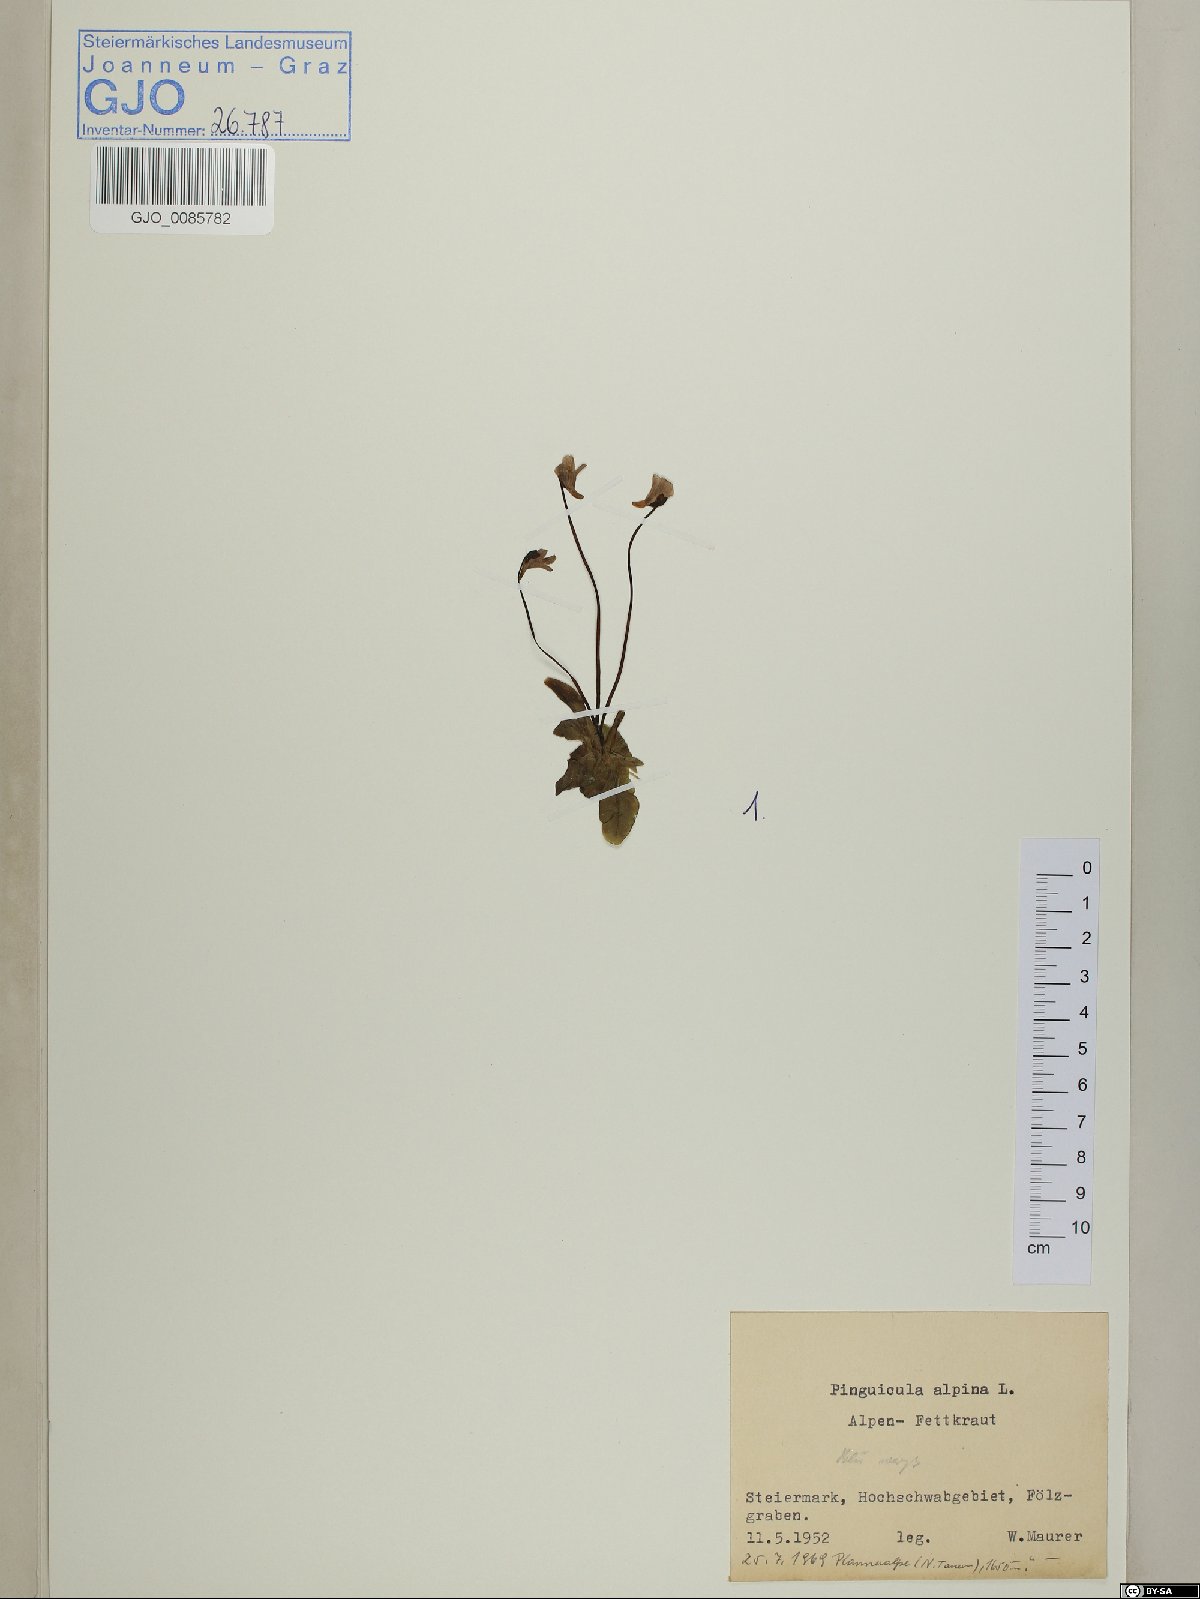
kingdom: Plantae
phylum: Tracheophyta
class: Magnoliopsida
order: Lamiales
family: Lentibulariaceae
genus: Pinguicula
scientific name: Pinguicula alpina
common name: Alpine butterwort
